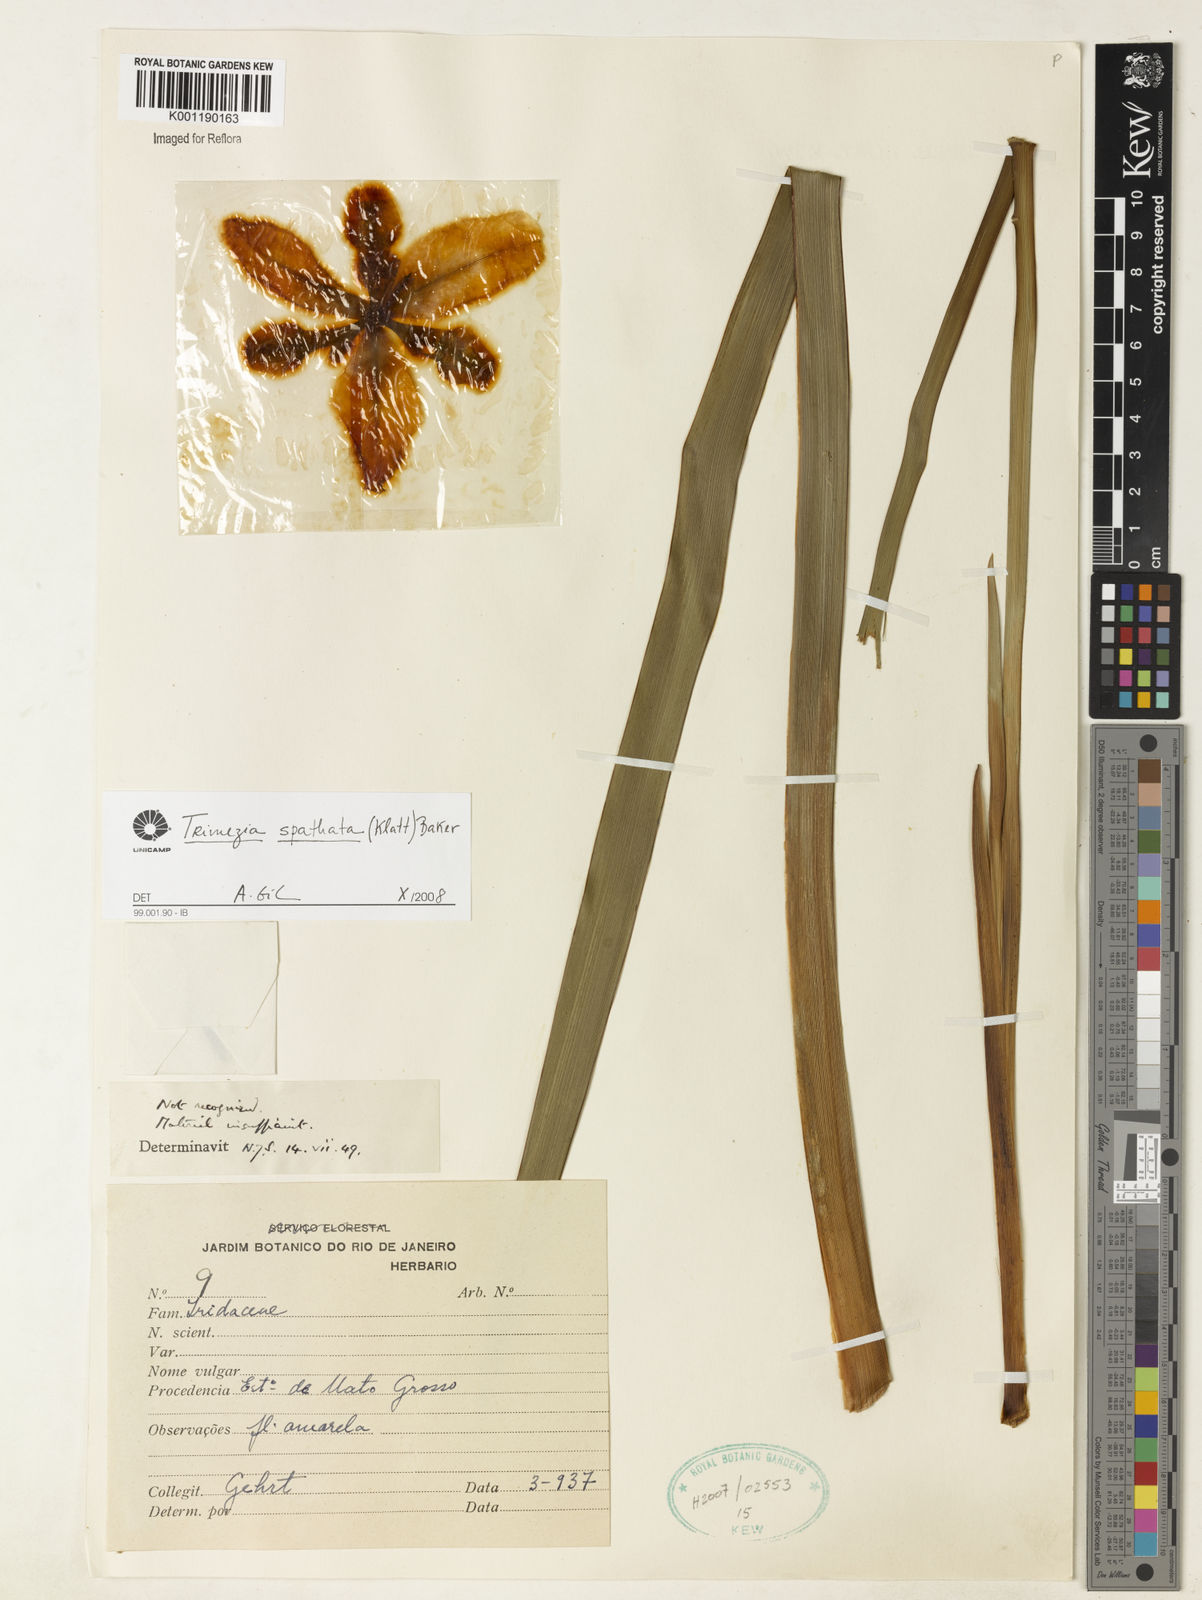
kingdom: Plantae
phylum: Tracheophyta
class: Liliopsida
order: Asparagales
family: Iridaceae
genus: Trimezia
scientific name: Trimezia spathata
